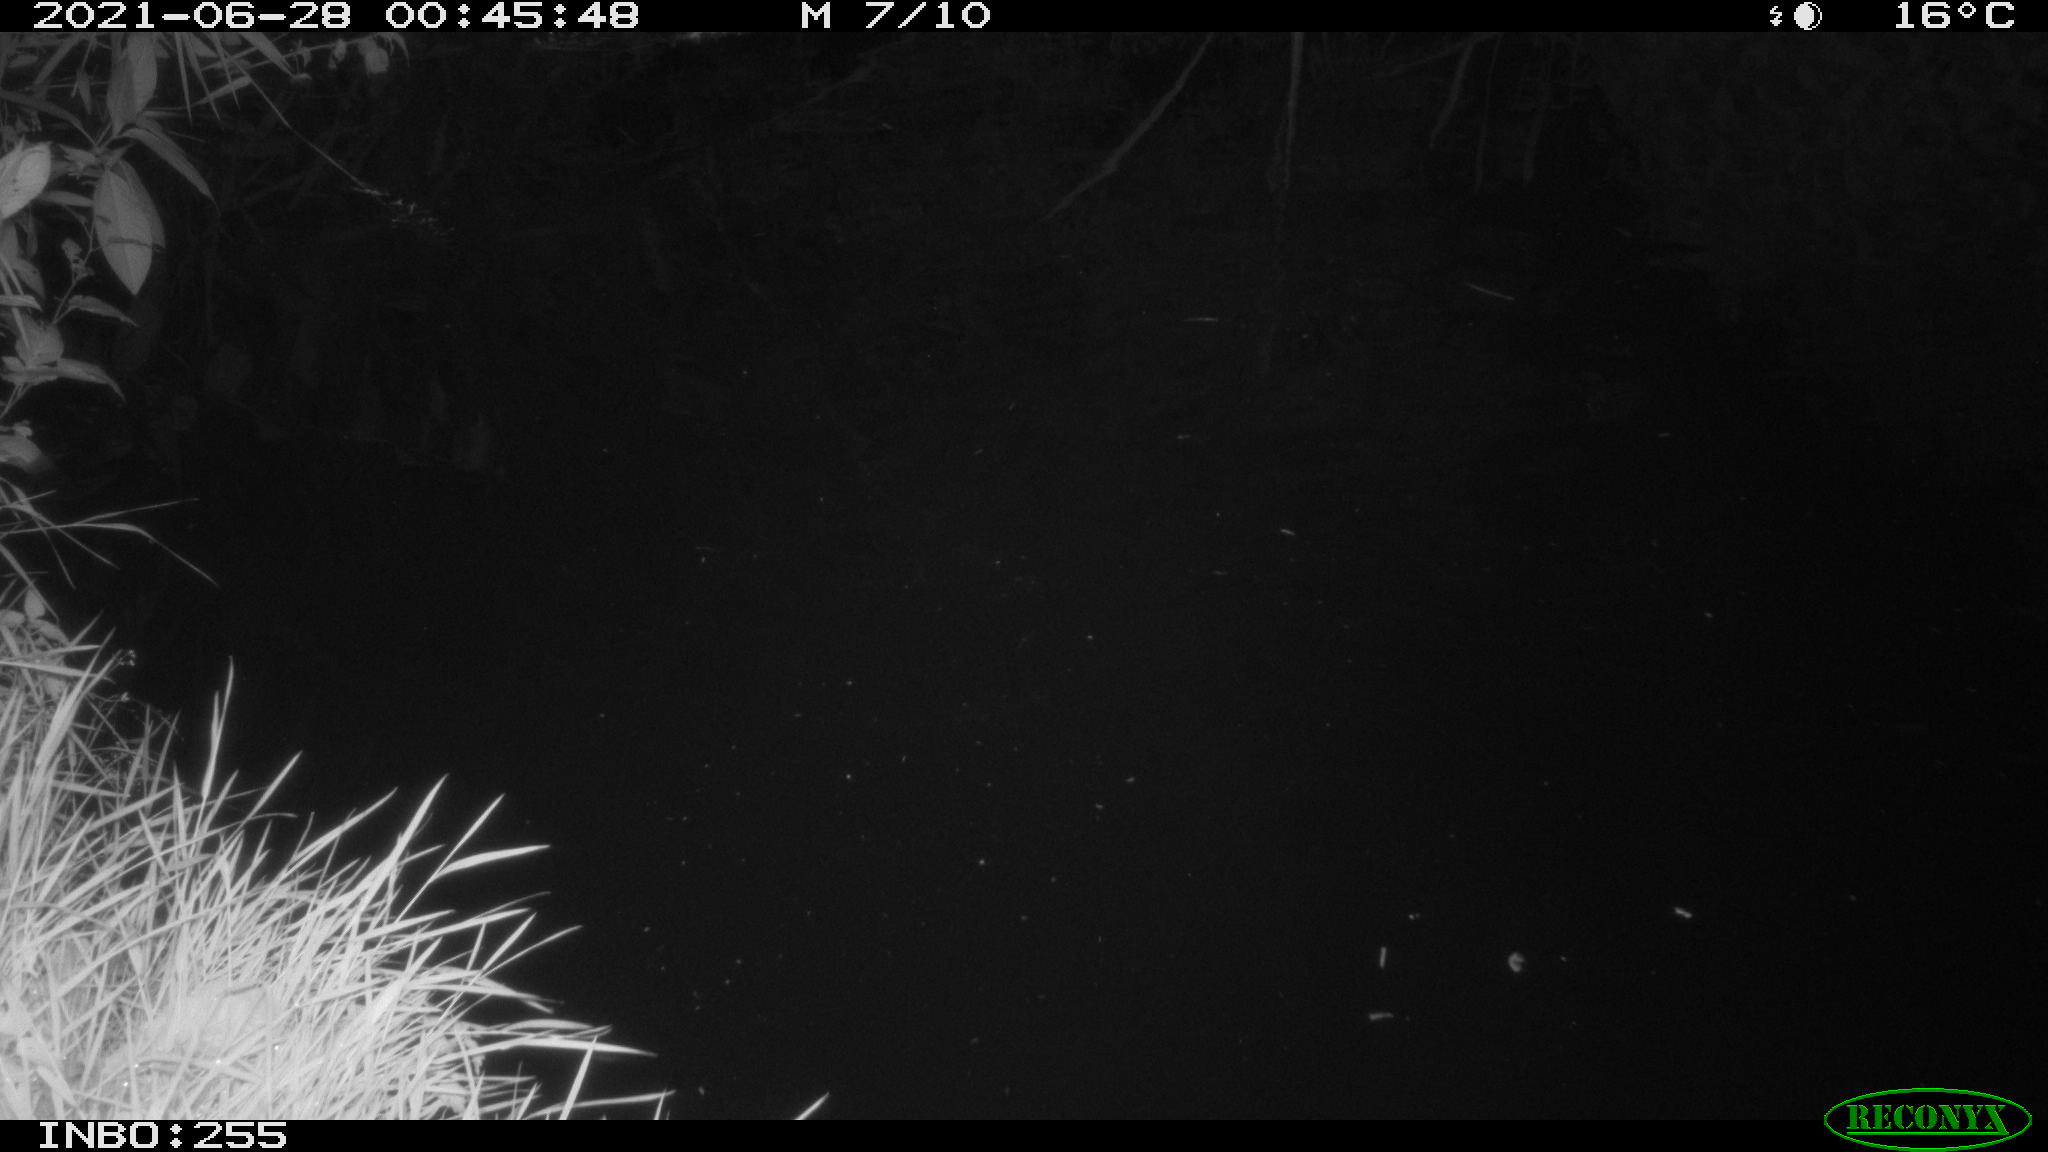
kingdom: Animalia
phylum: Chordata
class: Aves
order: Anseriformes
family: Anatidae
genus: Anas
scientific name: Anas
